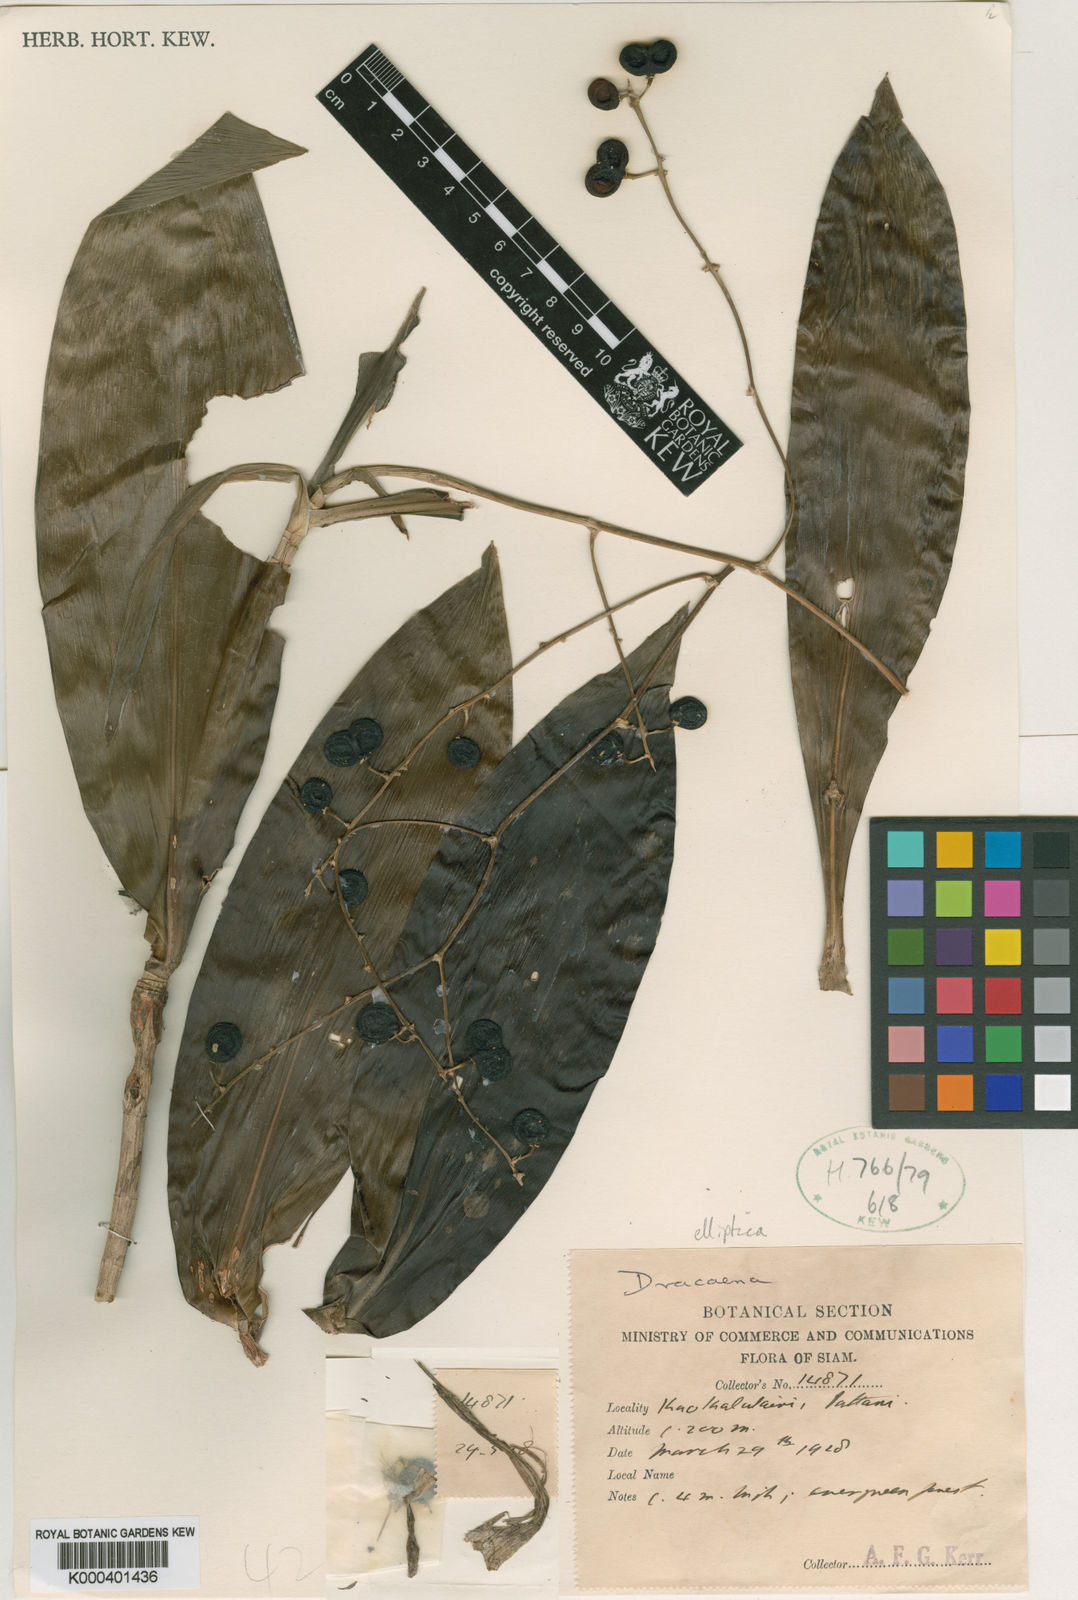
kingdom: Plantae
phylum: Tracheophyta
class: Liliopsida
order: Asparagales
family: Asparagaceae
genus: Dracaena
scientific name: Dracaena elliptica
